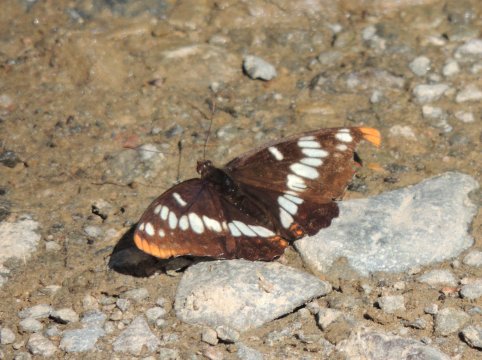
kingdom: Animalia
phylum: Arthropoda
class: Insecta
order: Lepidoptera
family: Nymphalidae
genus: Limenitis
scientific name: Limenitis lorquini
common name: Lorquin's Admiral
